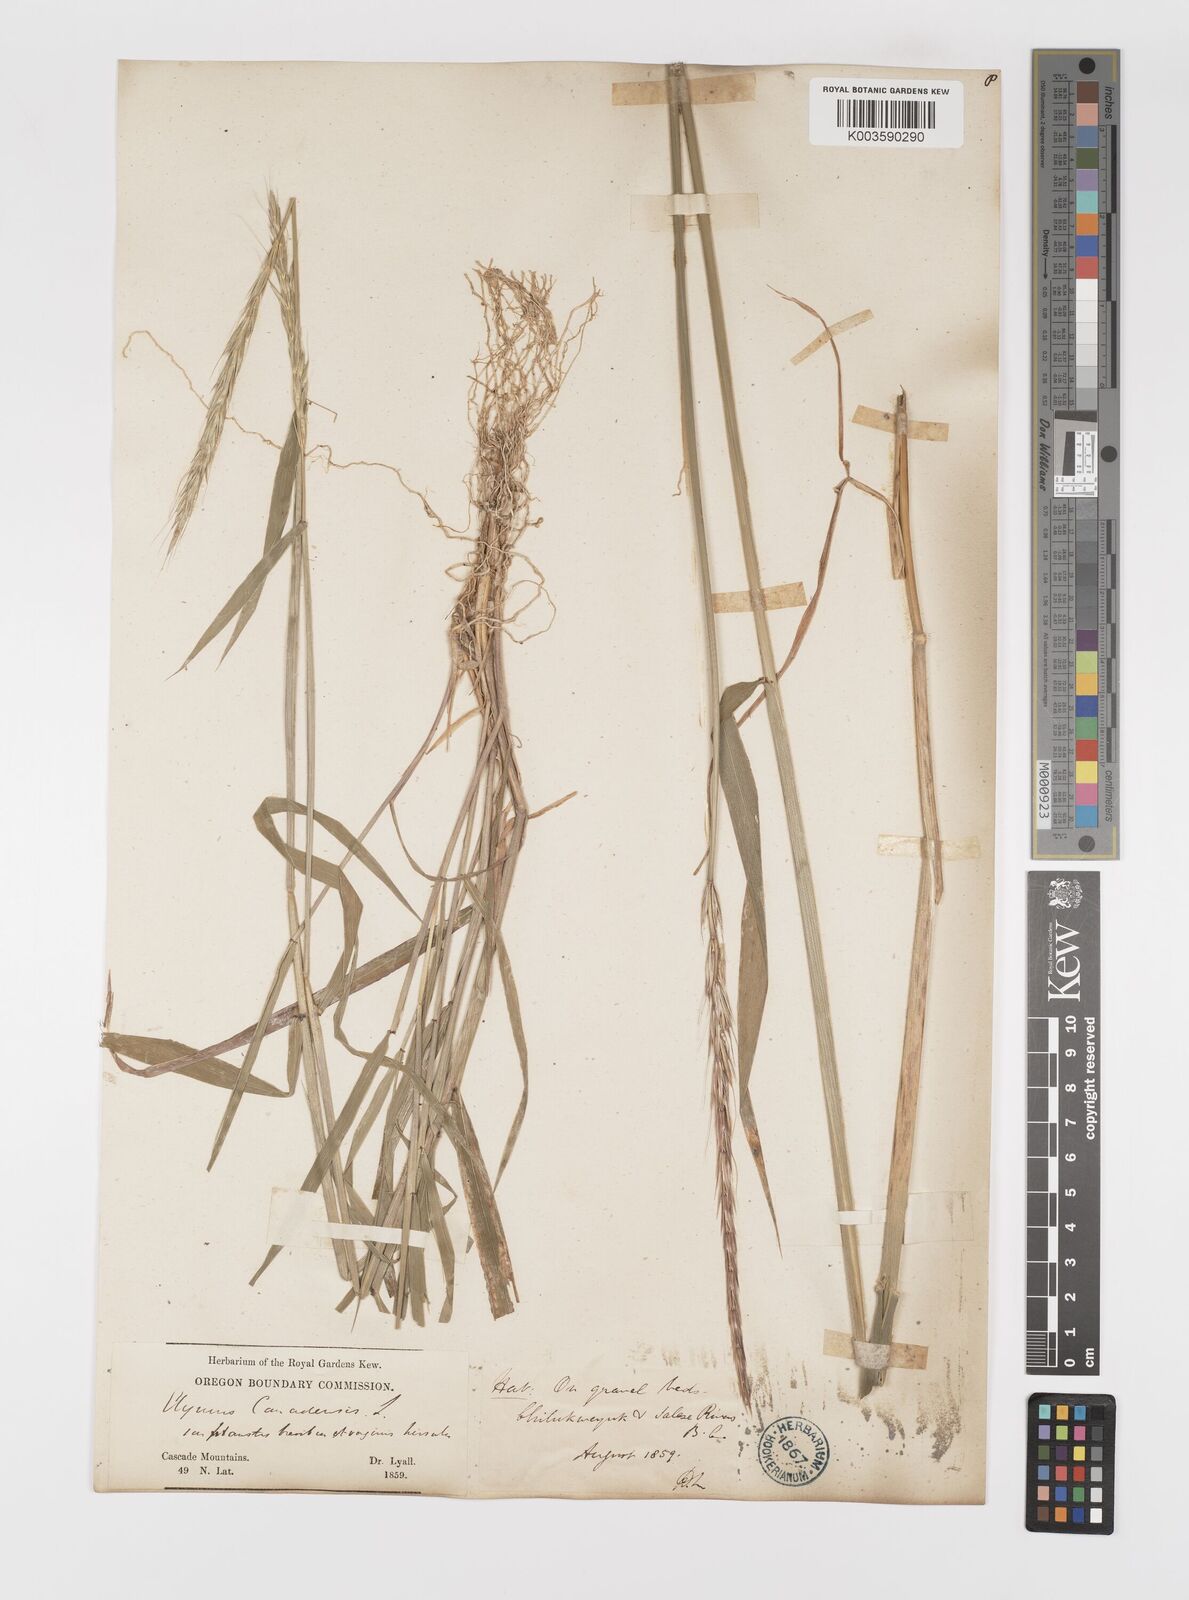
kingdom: Plantae
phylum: Tracheophyta
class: Liliopsida
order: Poales
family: Poaceae
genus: Elymus
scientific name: Elymus
